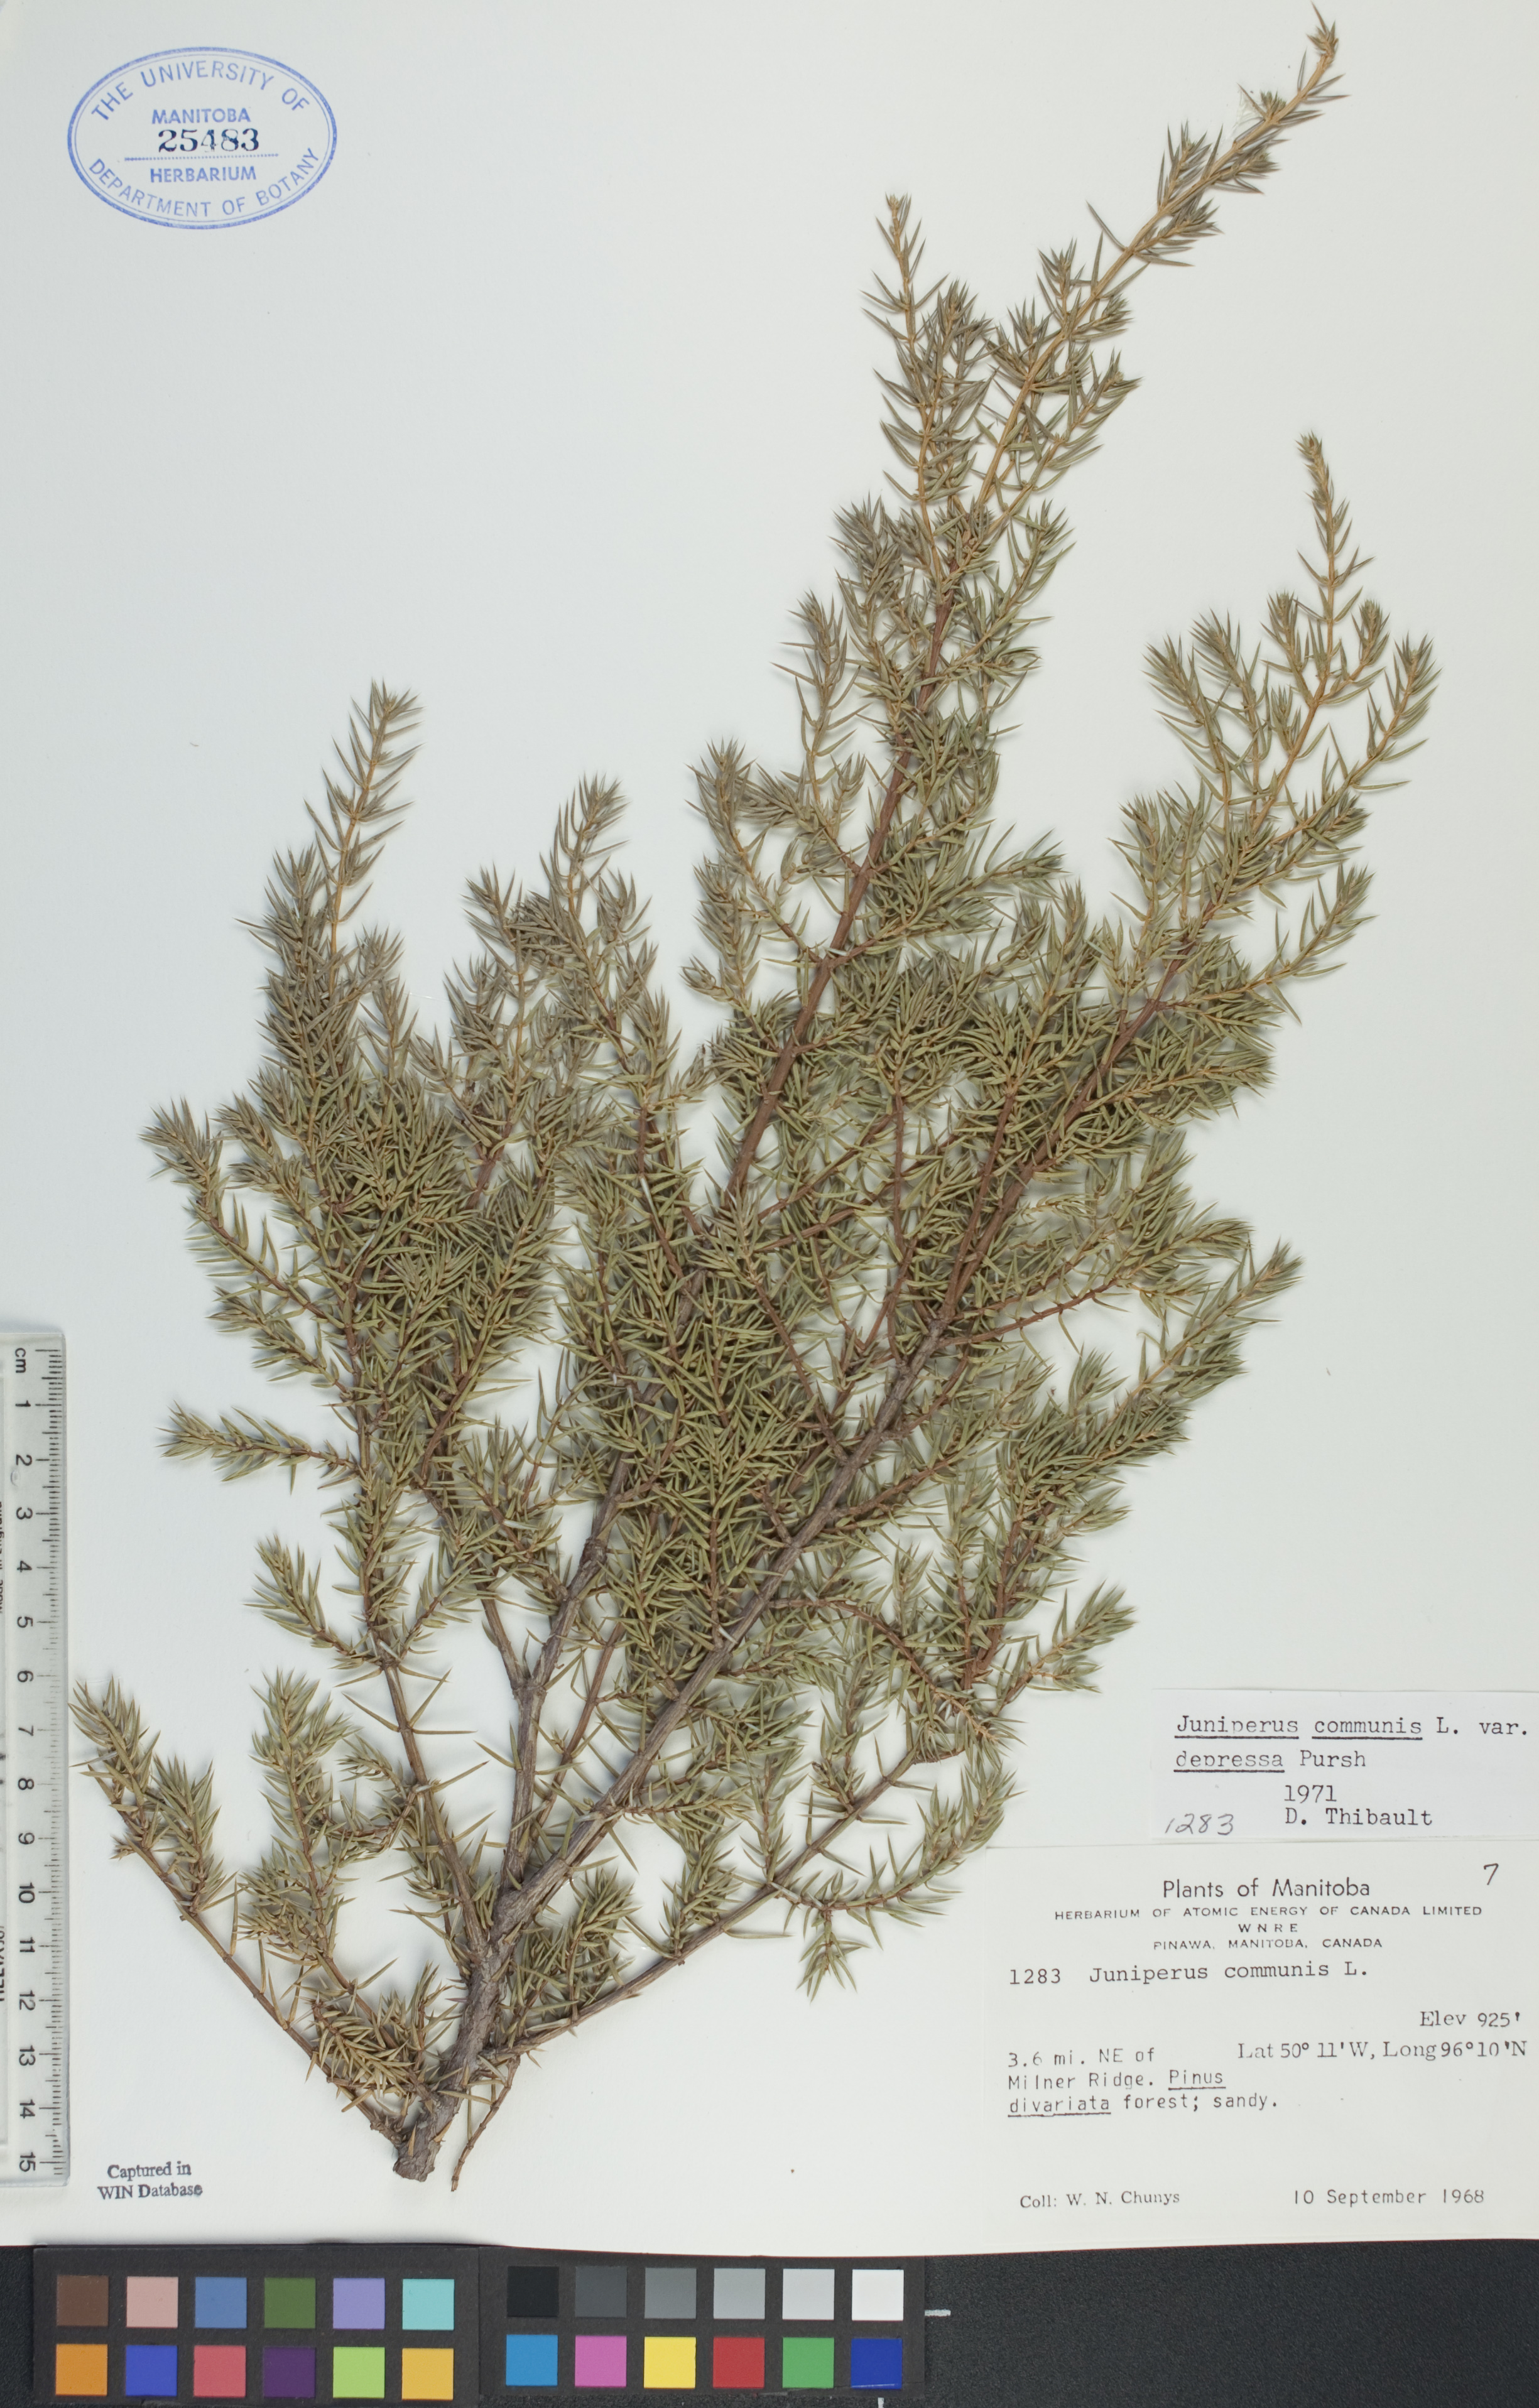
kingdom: Plantae
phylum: Tracheophyta
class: Pinopsida
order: Pinales
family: Cupressaceae
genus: Juniperus
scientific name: Juniperus communis
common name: Common juniper
